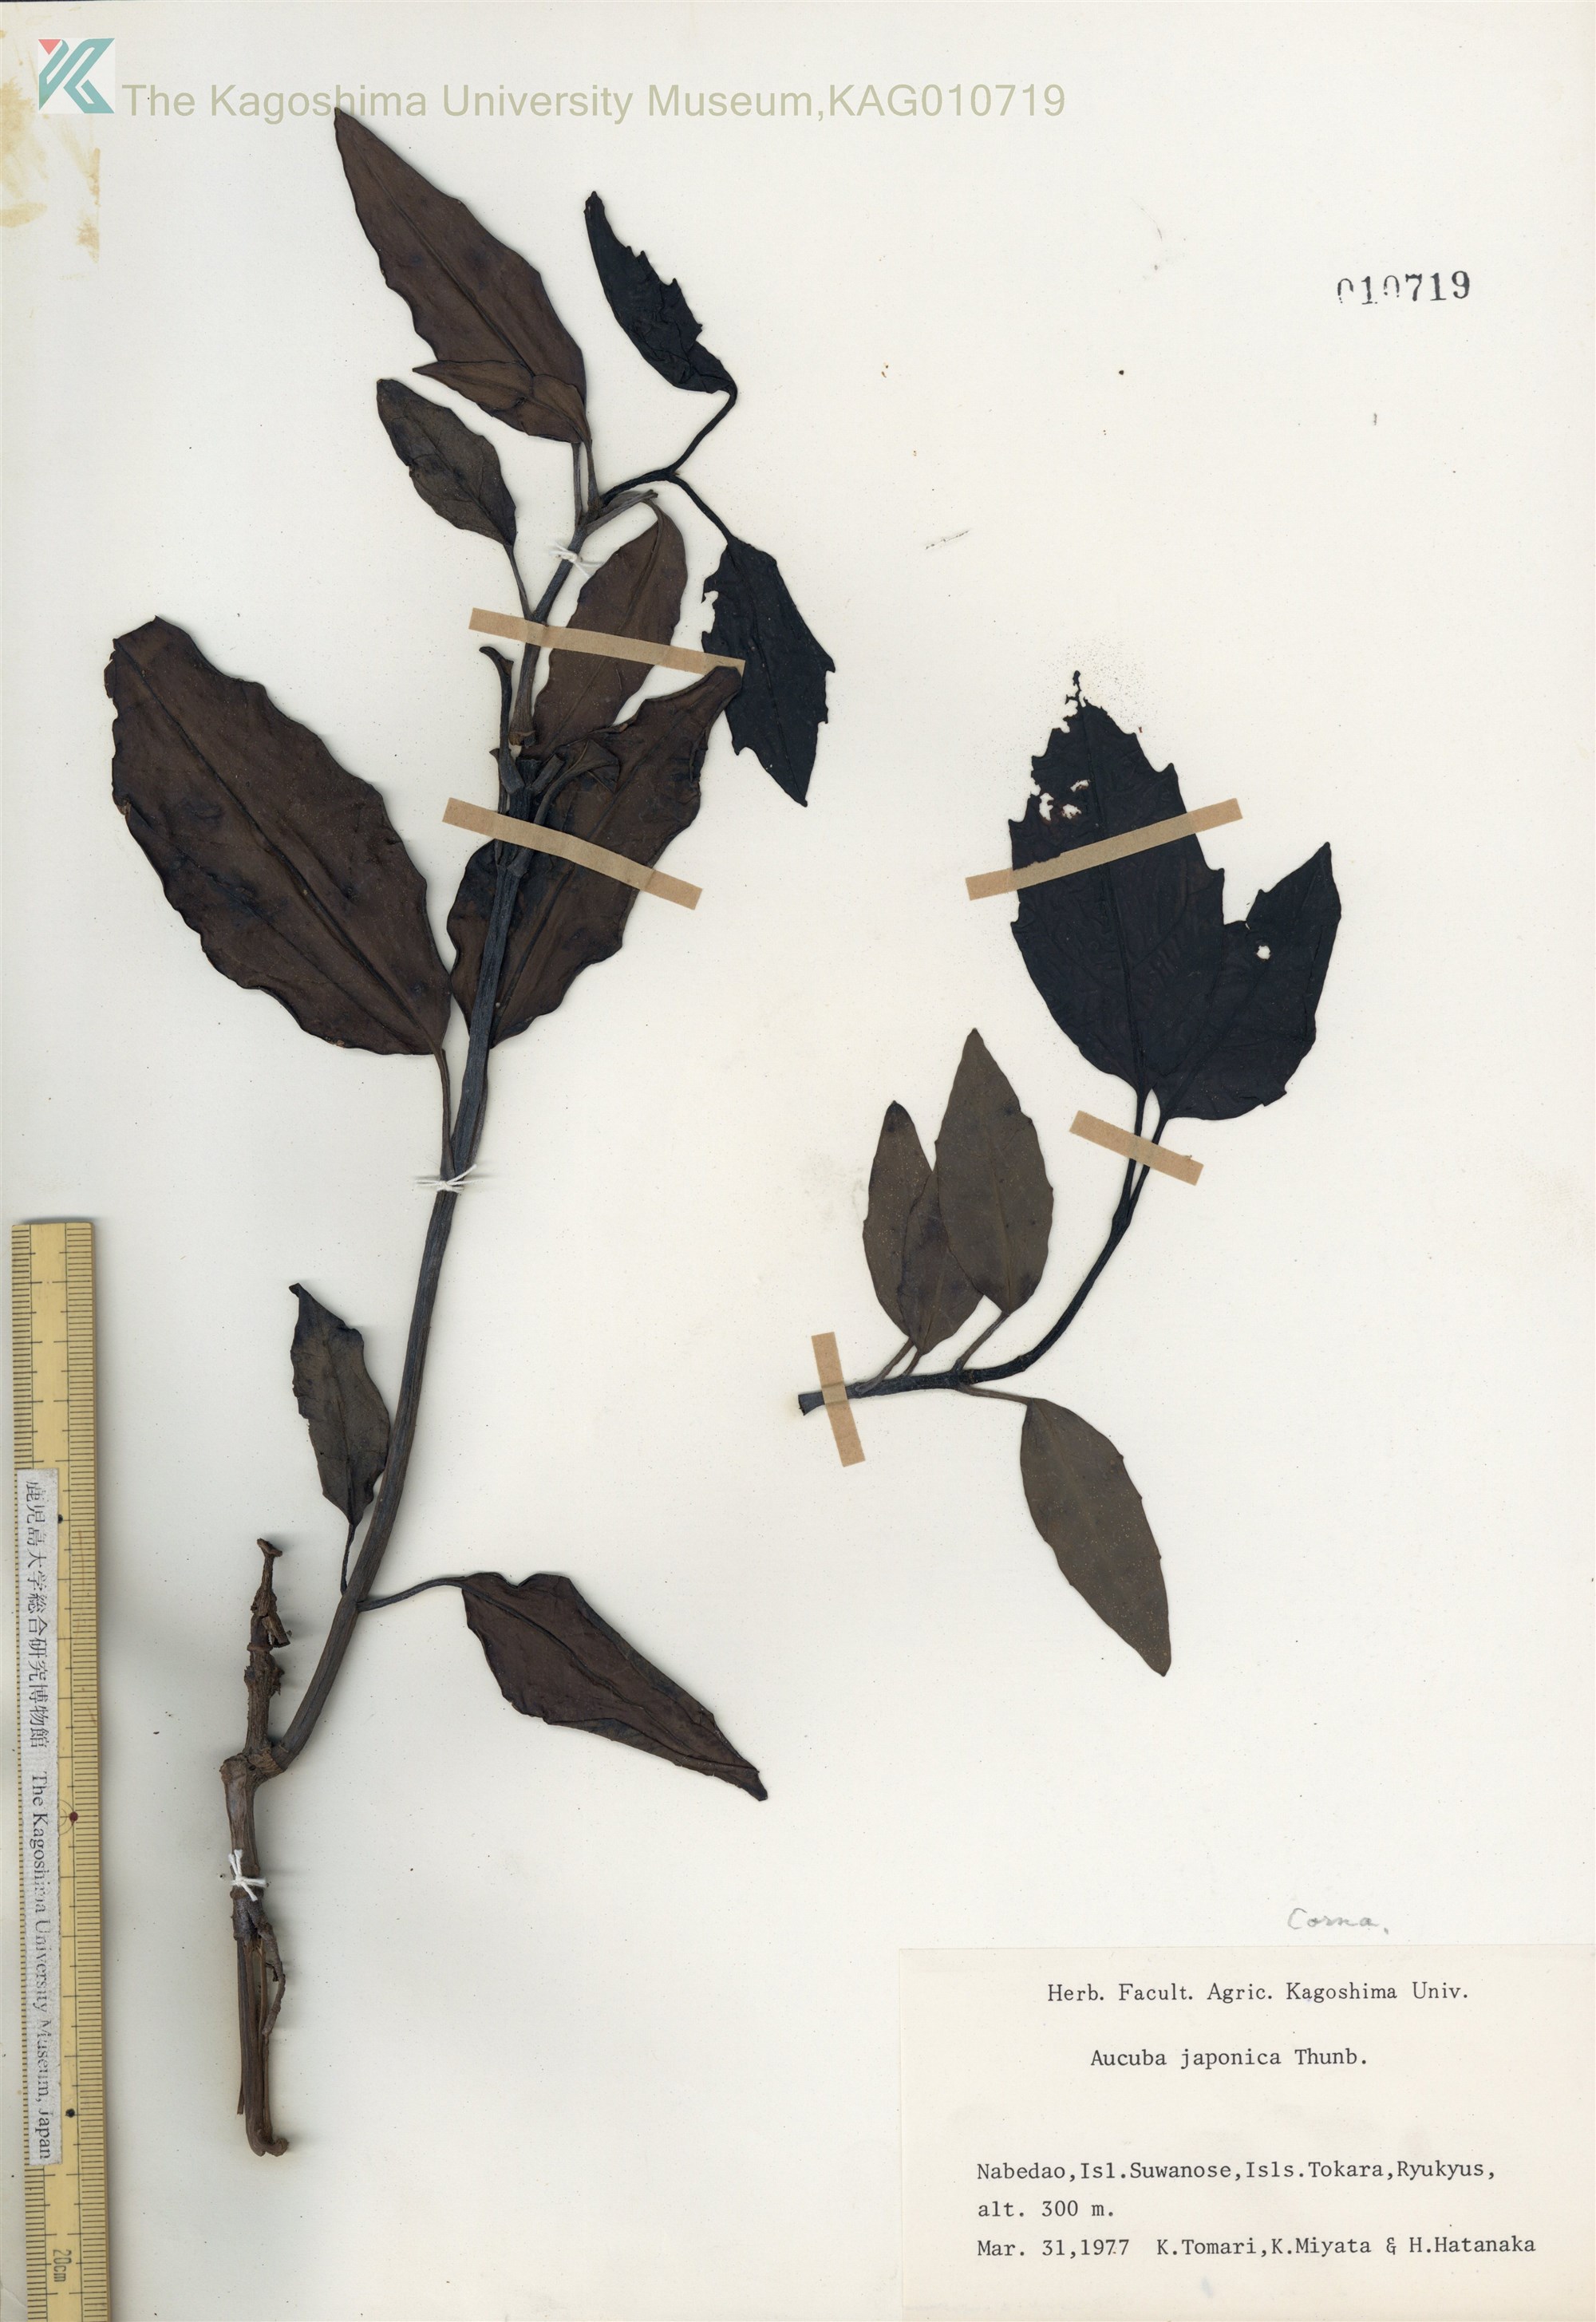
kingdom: Plantae
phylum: Tracheophyta
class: Magnoliopsida
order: Garryales
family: Garryaceae
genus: Aucuba
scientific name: Aucuba japonica
